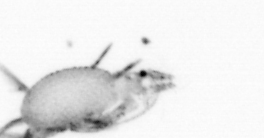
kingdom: Animalia
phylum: Annelida
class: Polychaeta
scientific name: Polychaeta
